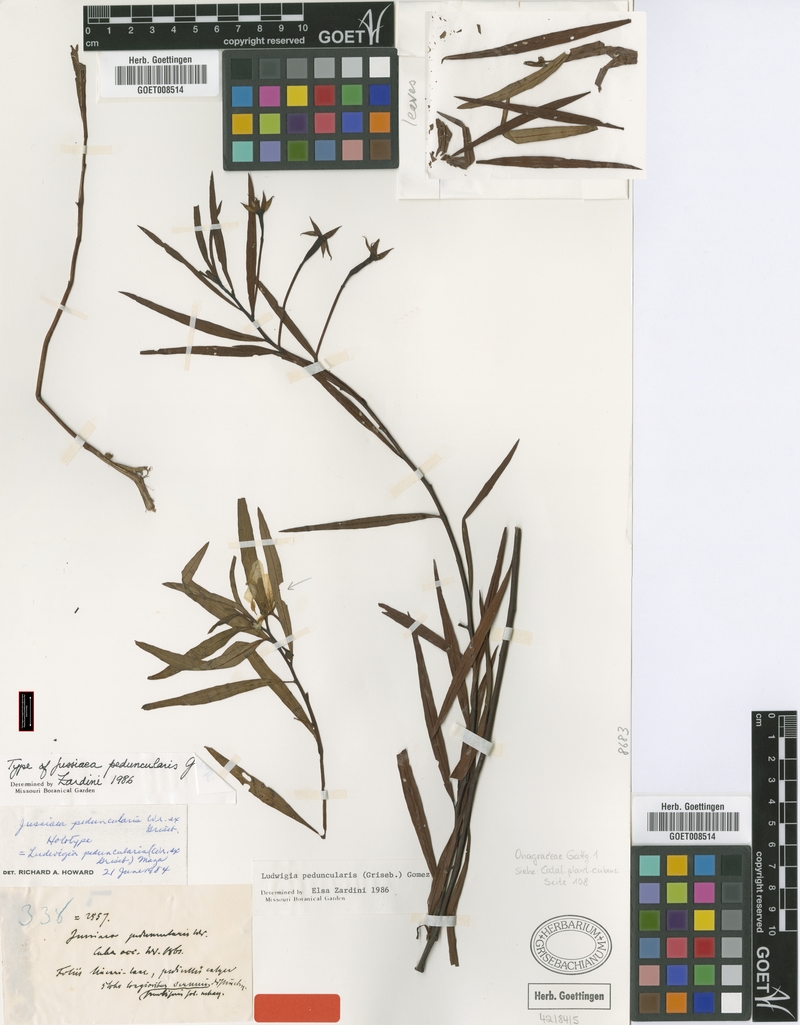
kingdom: Plantae
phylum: Tracheophyta
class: Magnoliopsida
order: Myrtales
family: Onagraceae
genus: Ludwigia
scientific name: Ludwigia peduncularis
